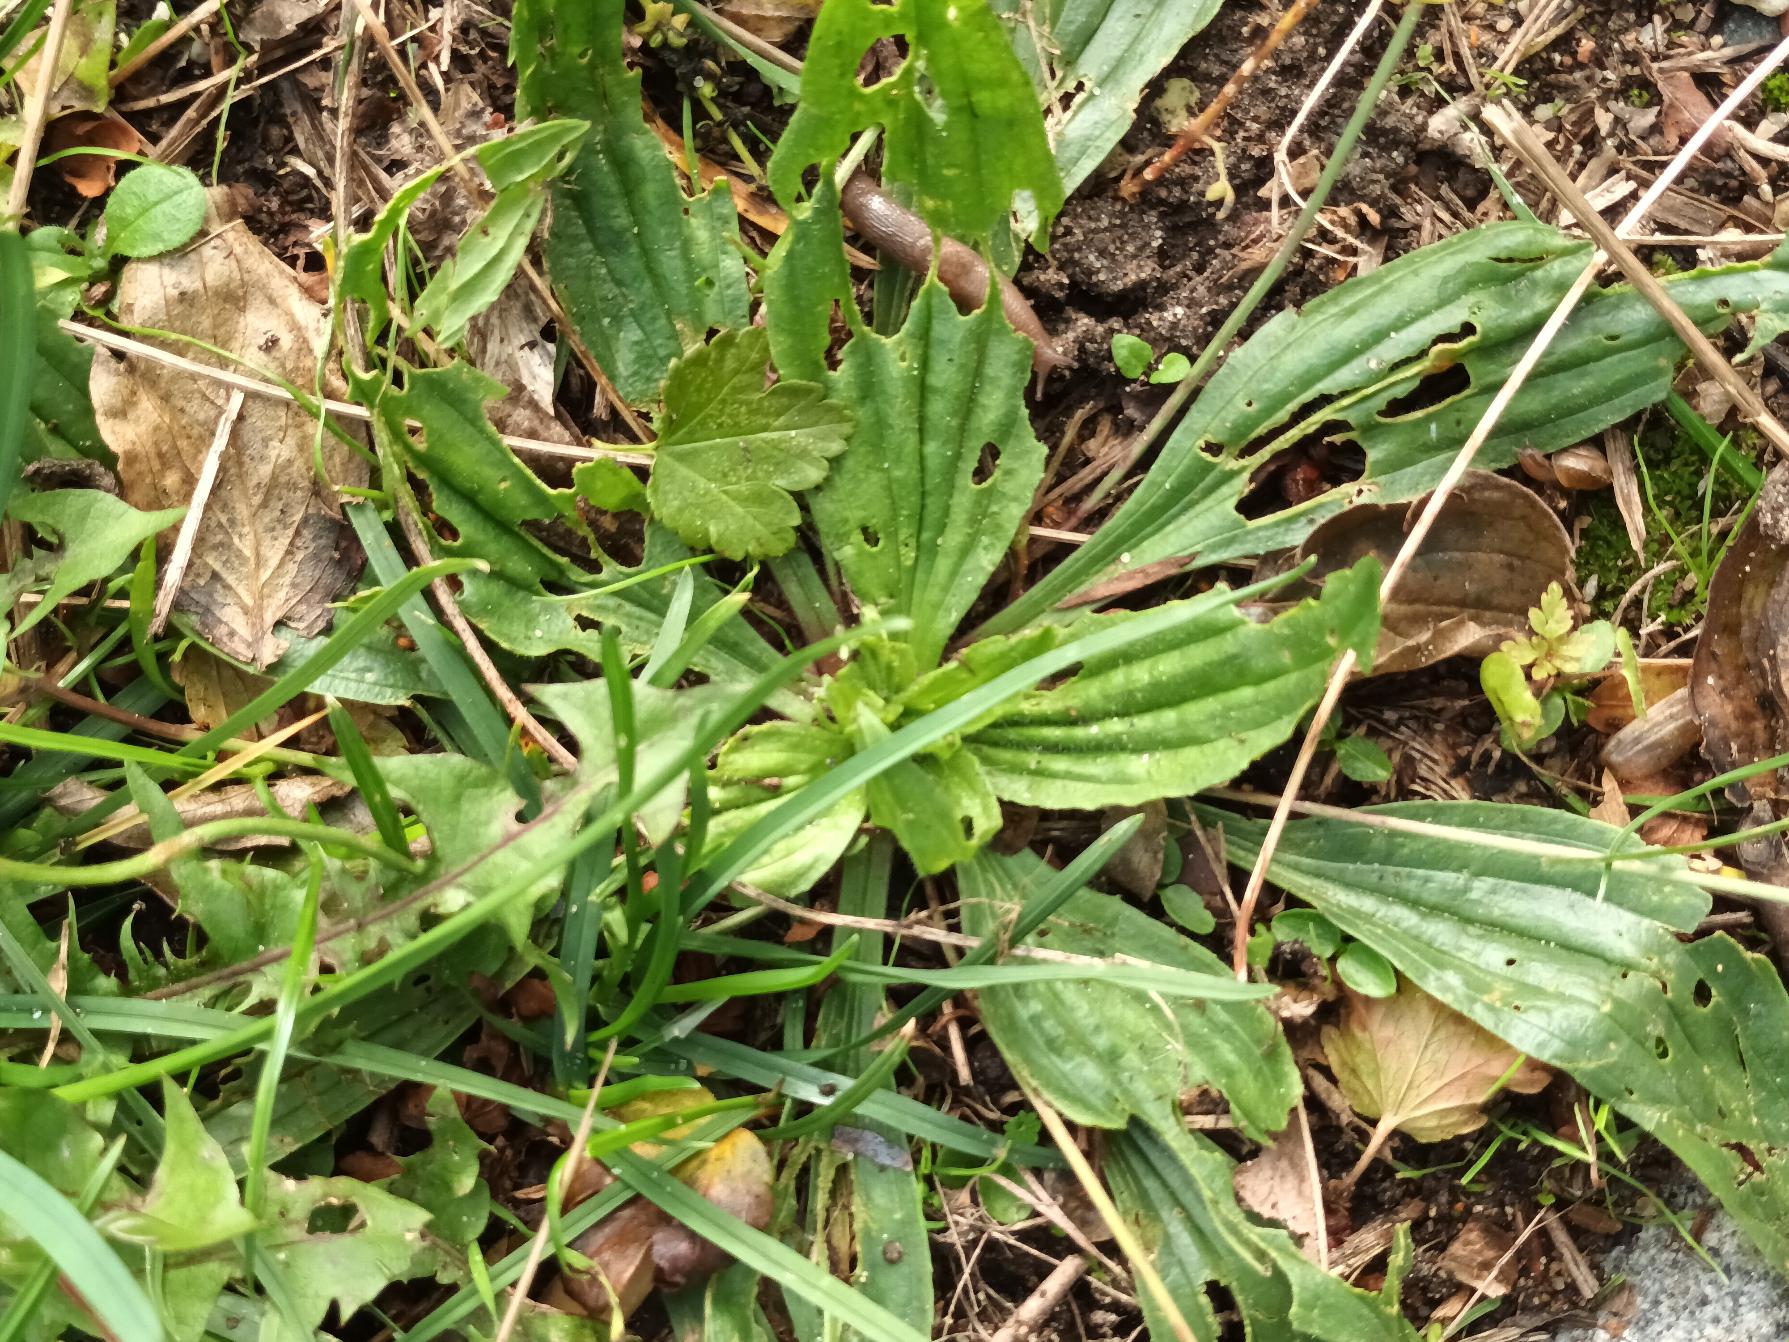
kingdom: Plantae
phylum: Tracheophyta
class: Magnoliopsida
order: Lamiales
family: Plantaginaceae
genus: Plantago
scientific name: Plantago lanceolata
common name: Lancet-vejbred
